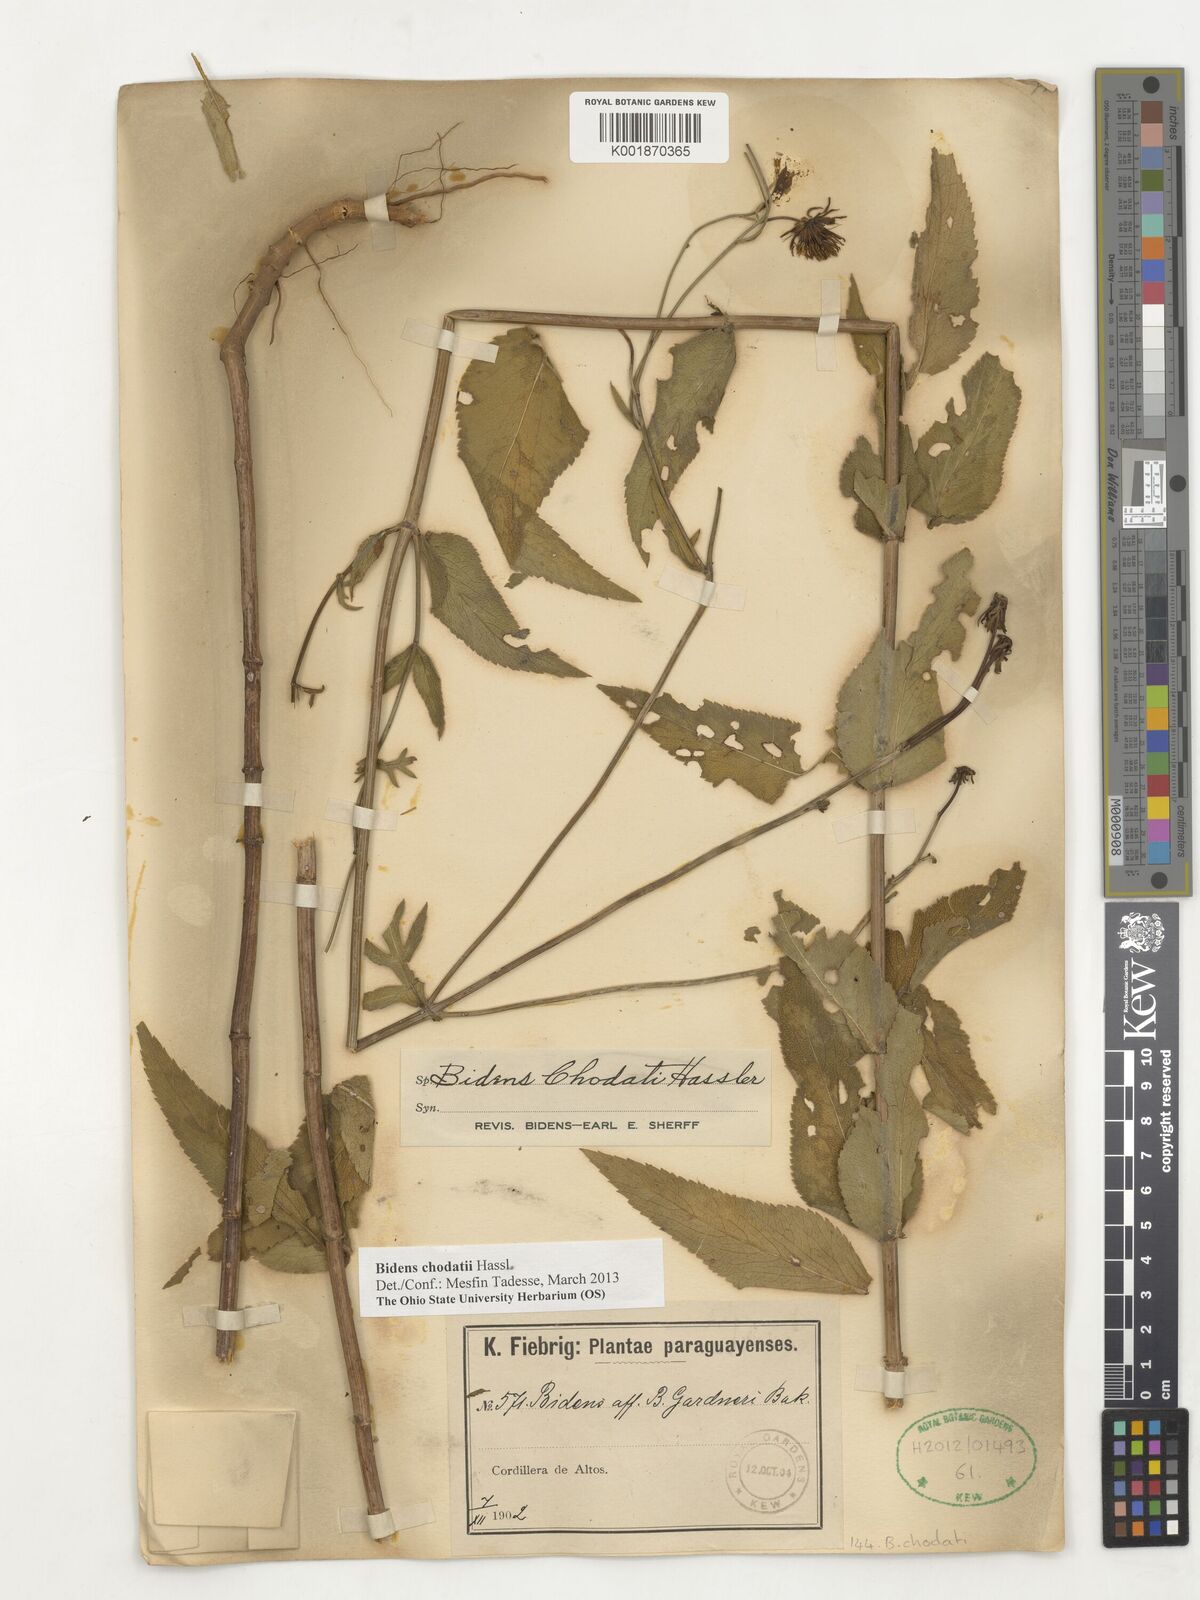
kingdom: Plantae
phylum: Tracheophyta
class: Magnoliopsida
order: Asterales
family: Asteraceae
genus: Bidens
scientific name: Bidens chodatii
